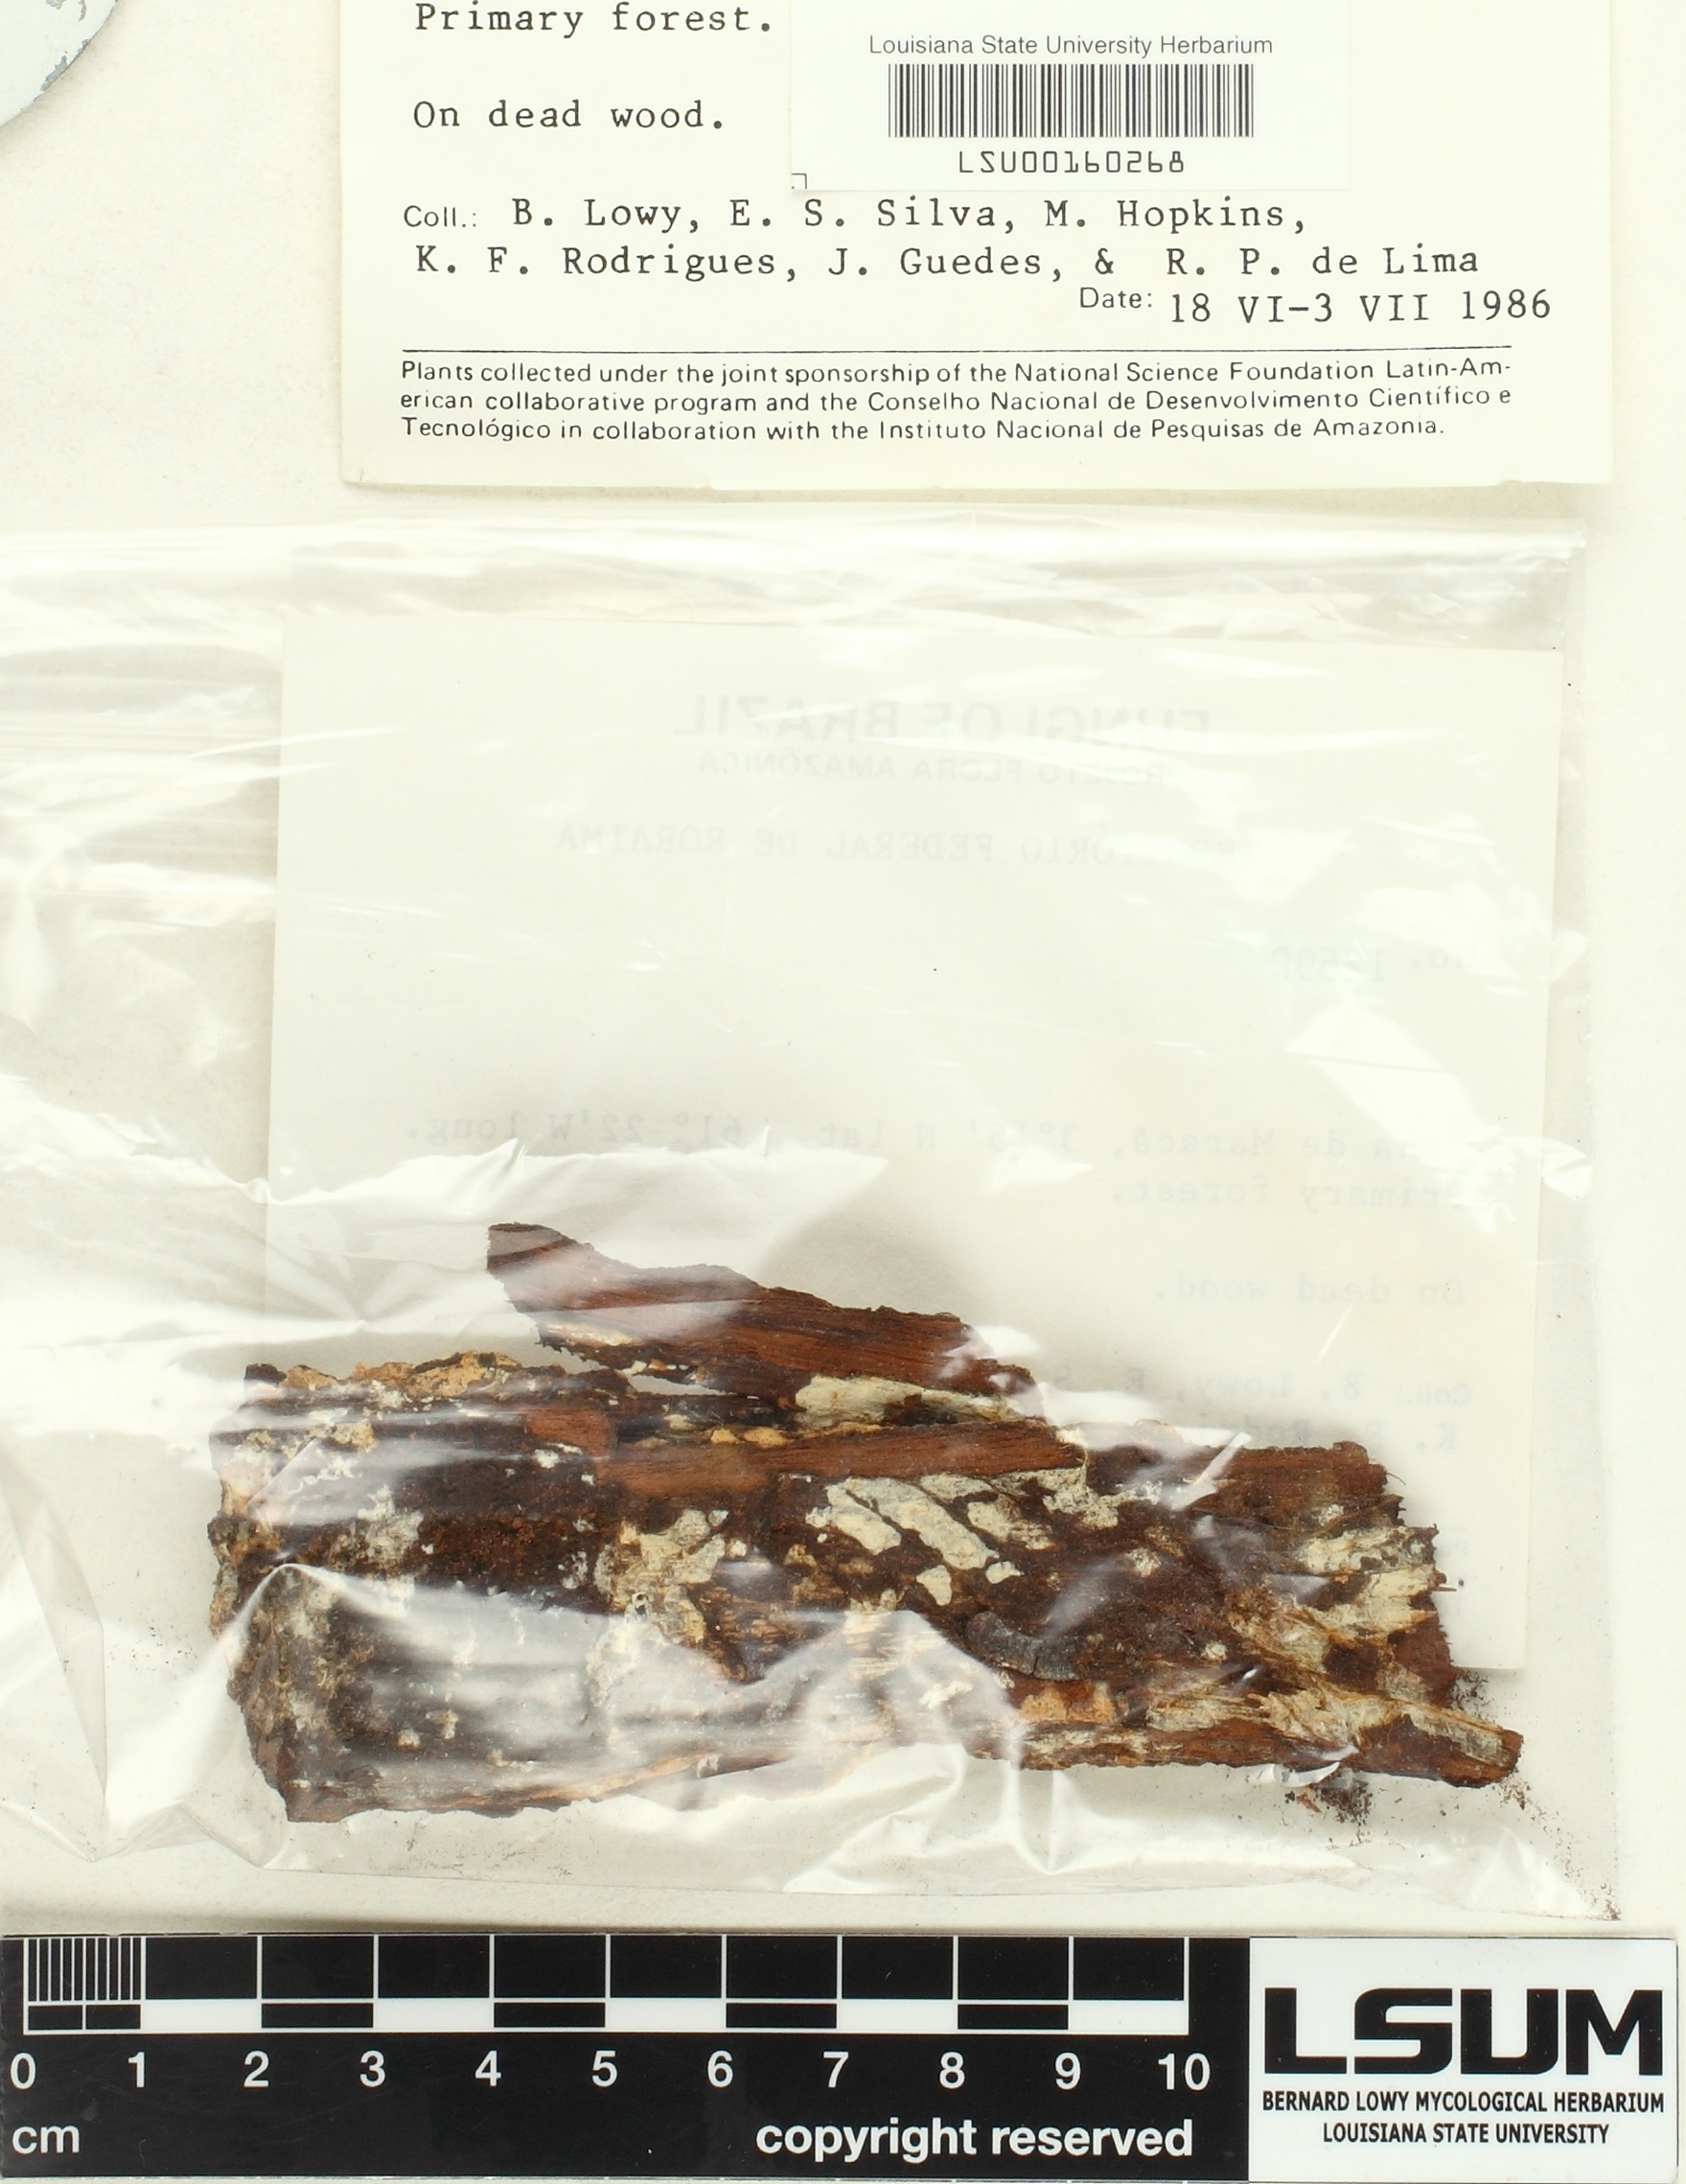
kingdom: Fungi
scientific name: Fungi
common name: Fungi
